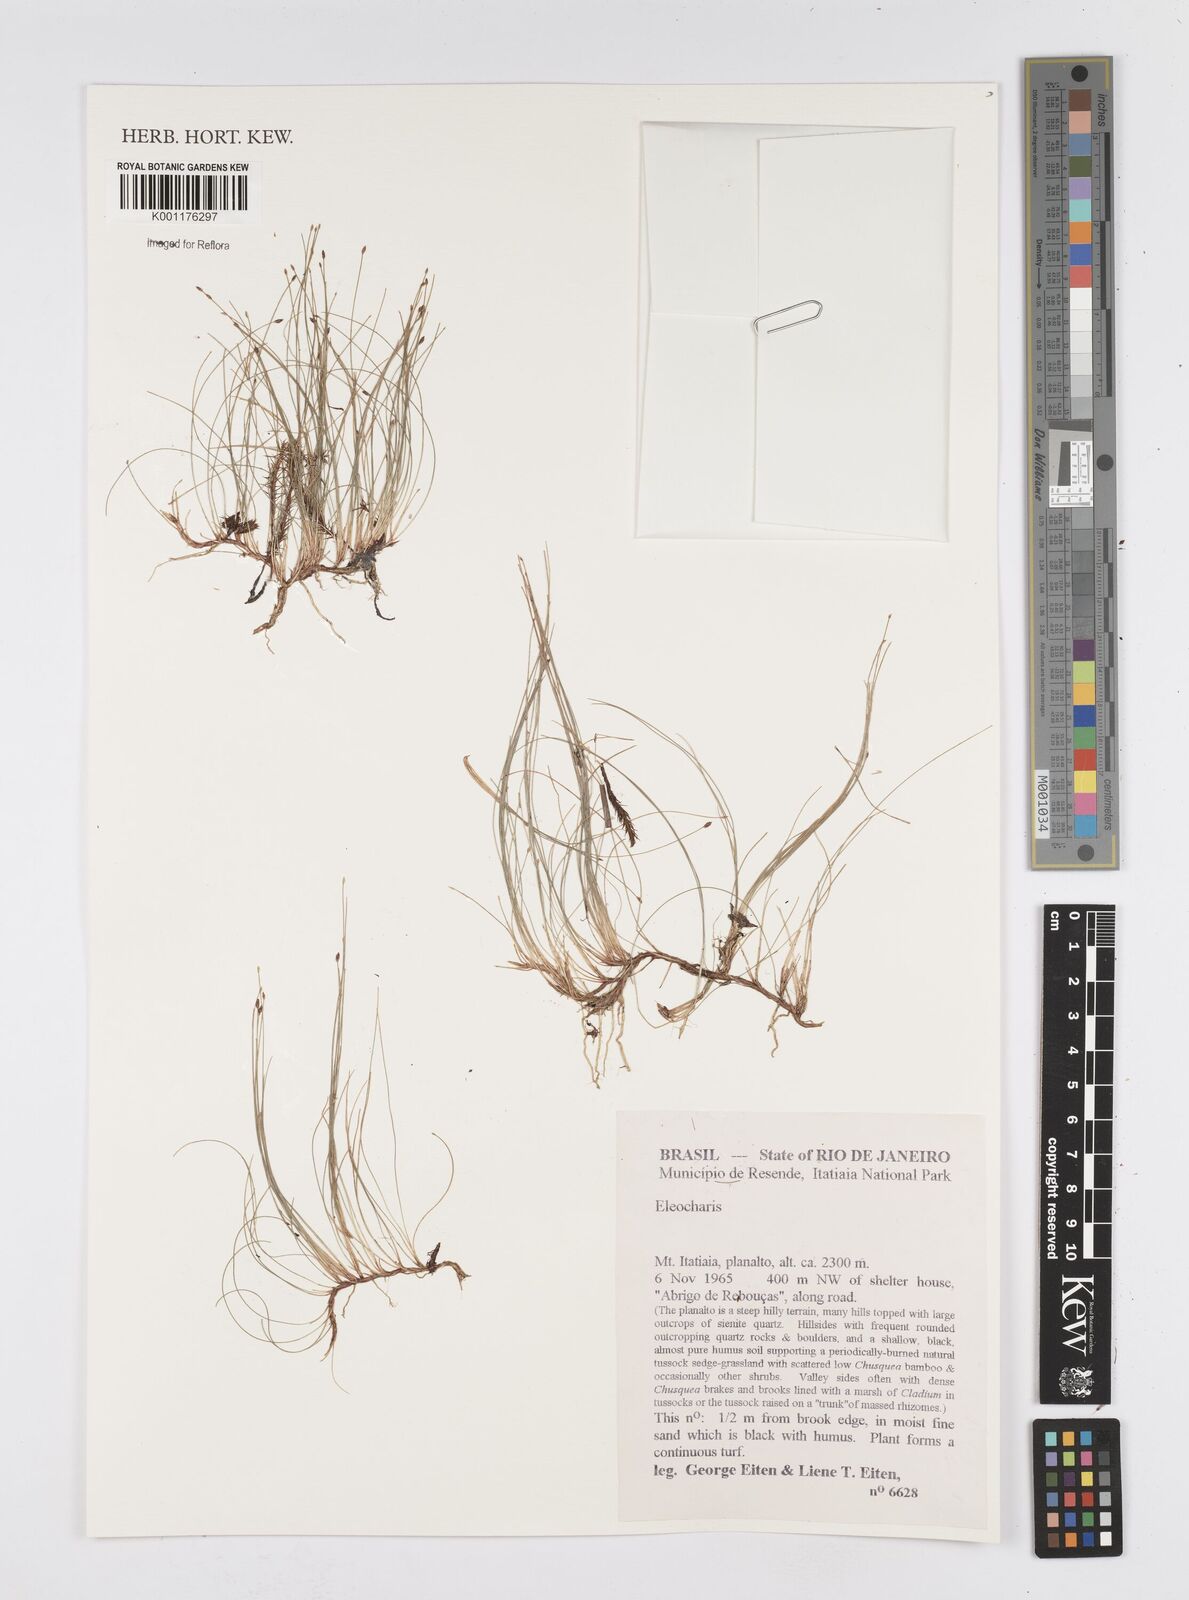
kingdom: Plantae
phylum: Tracheophyta
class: Liliopsida
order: Poales
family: Cyperaceae
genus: Eleocharis
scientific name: Eleocharis
